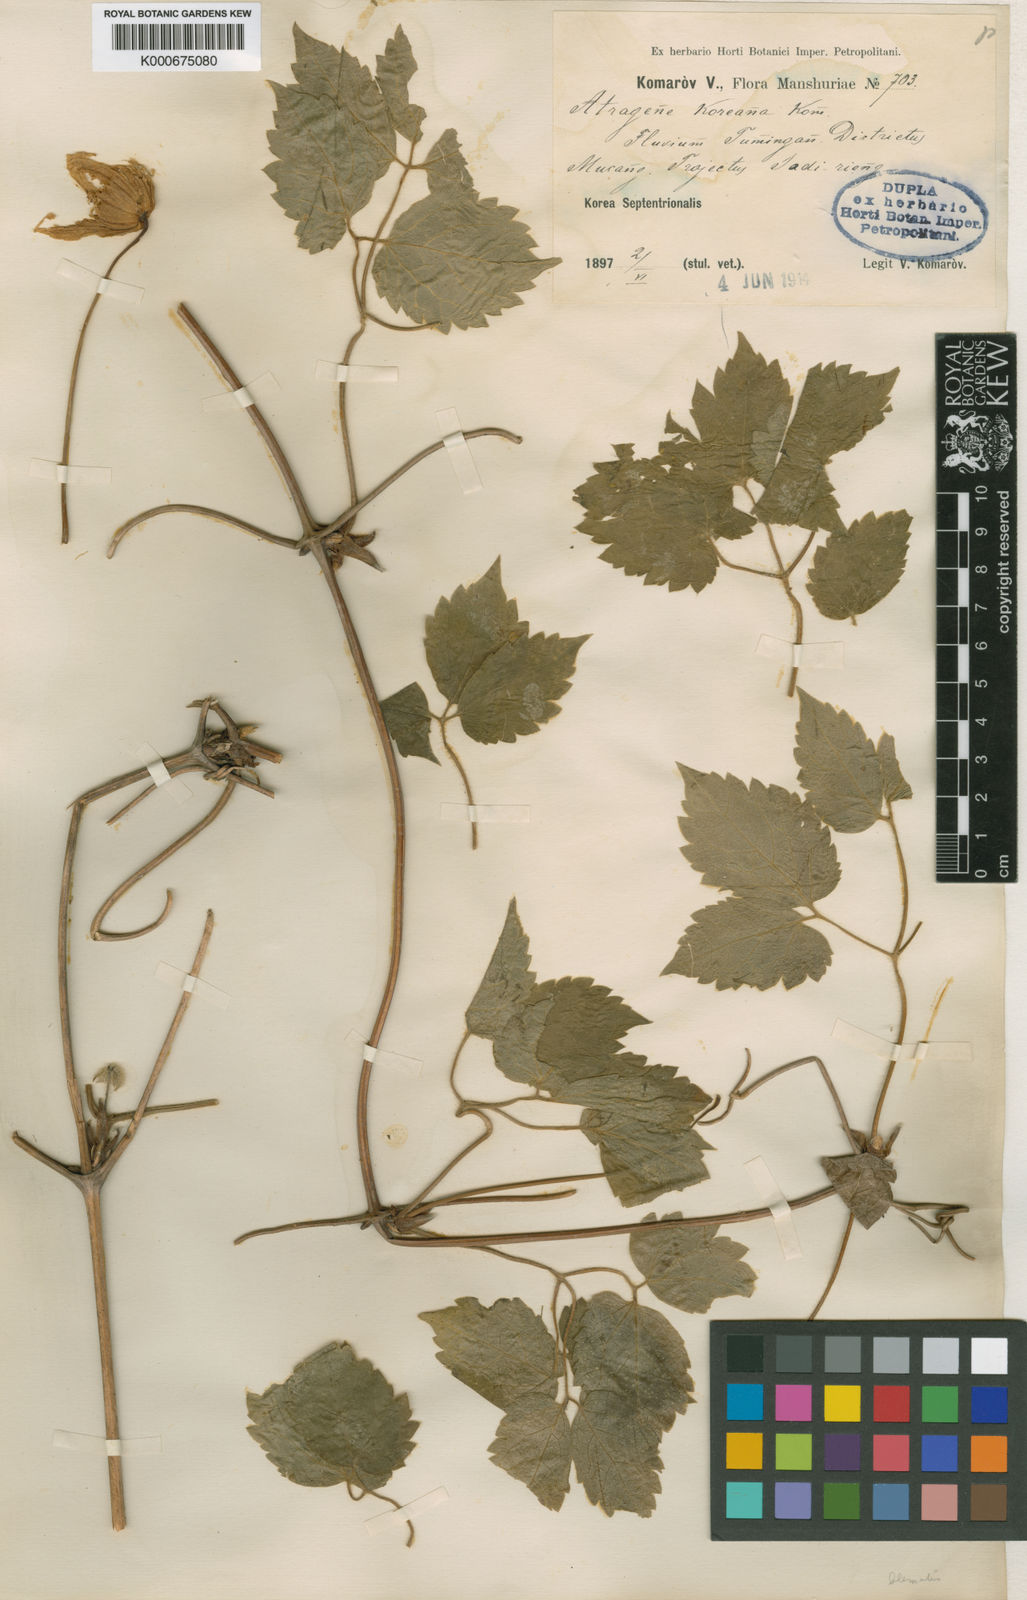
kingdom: Plantae
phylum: Tracheophyta
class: Magnoliopsida
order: Ranunculales
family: Ranunculaceae
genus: Clematis
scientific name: Clematis koreana
